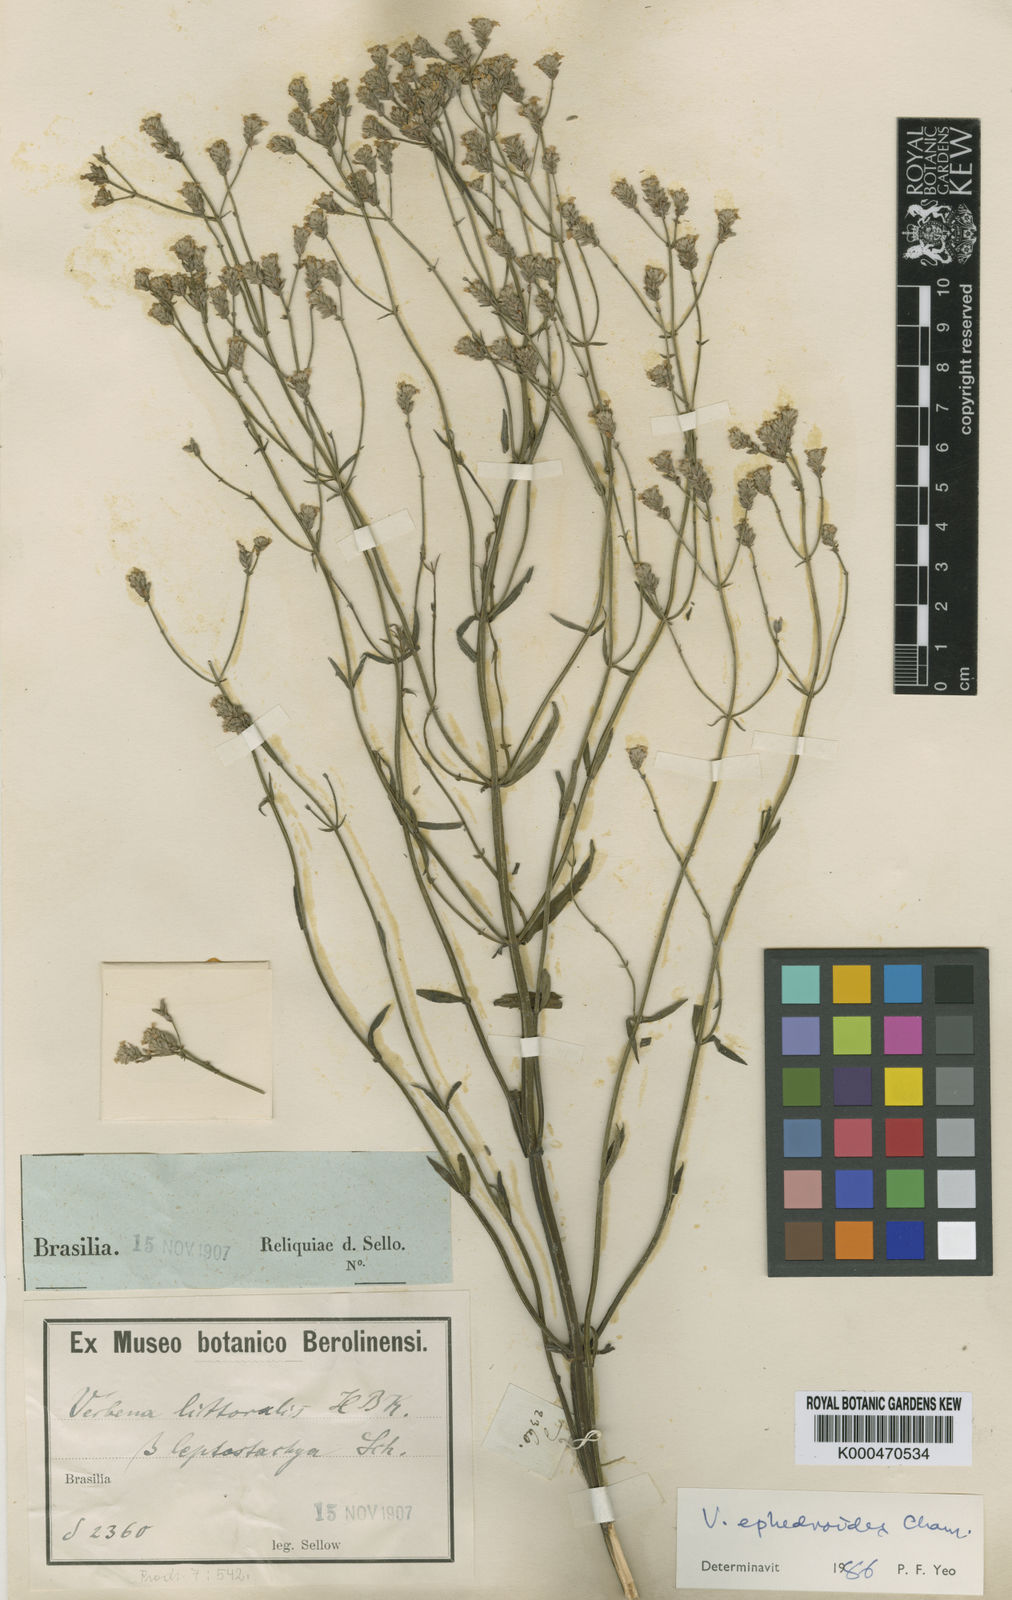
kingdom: Plantae
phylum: Tracheophyta
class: Magnoliopsida
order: Lamiales
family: Verbenaceae
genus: Verbena
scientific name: Verbena litoralis
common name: Seashore vervain
